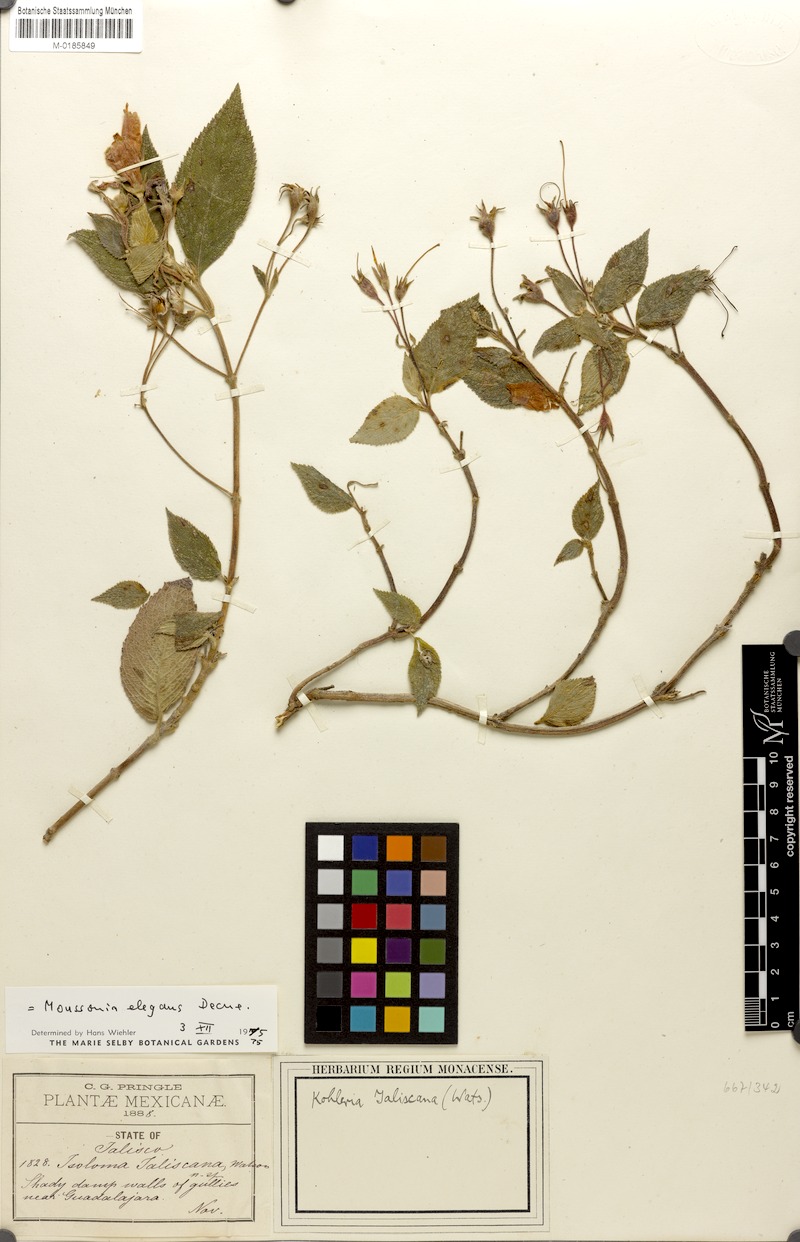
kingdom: Plantae
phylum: Tracheophyta
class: Magnoliopsida
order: Lamiales
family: Gesneriaceae
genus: Moussonia
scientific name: Moussonia elegans
